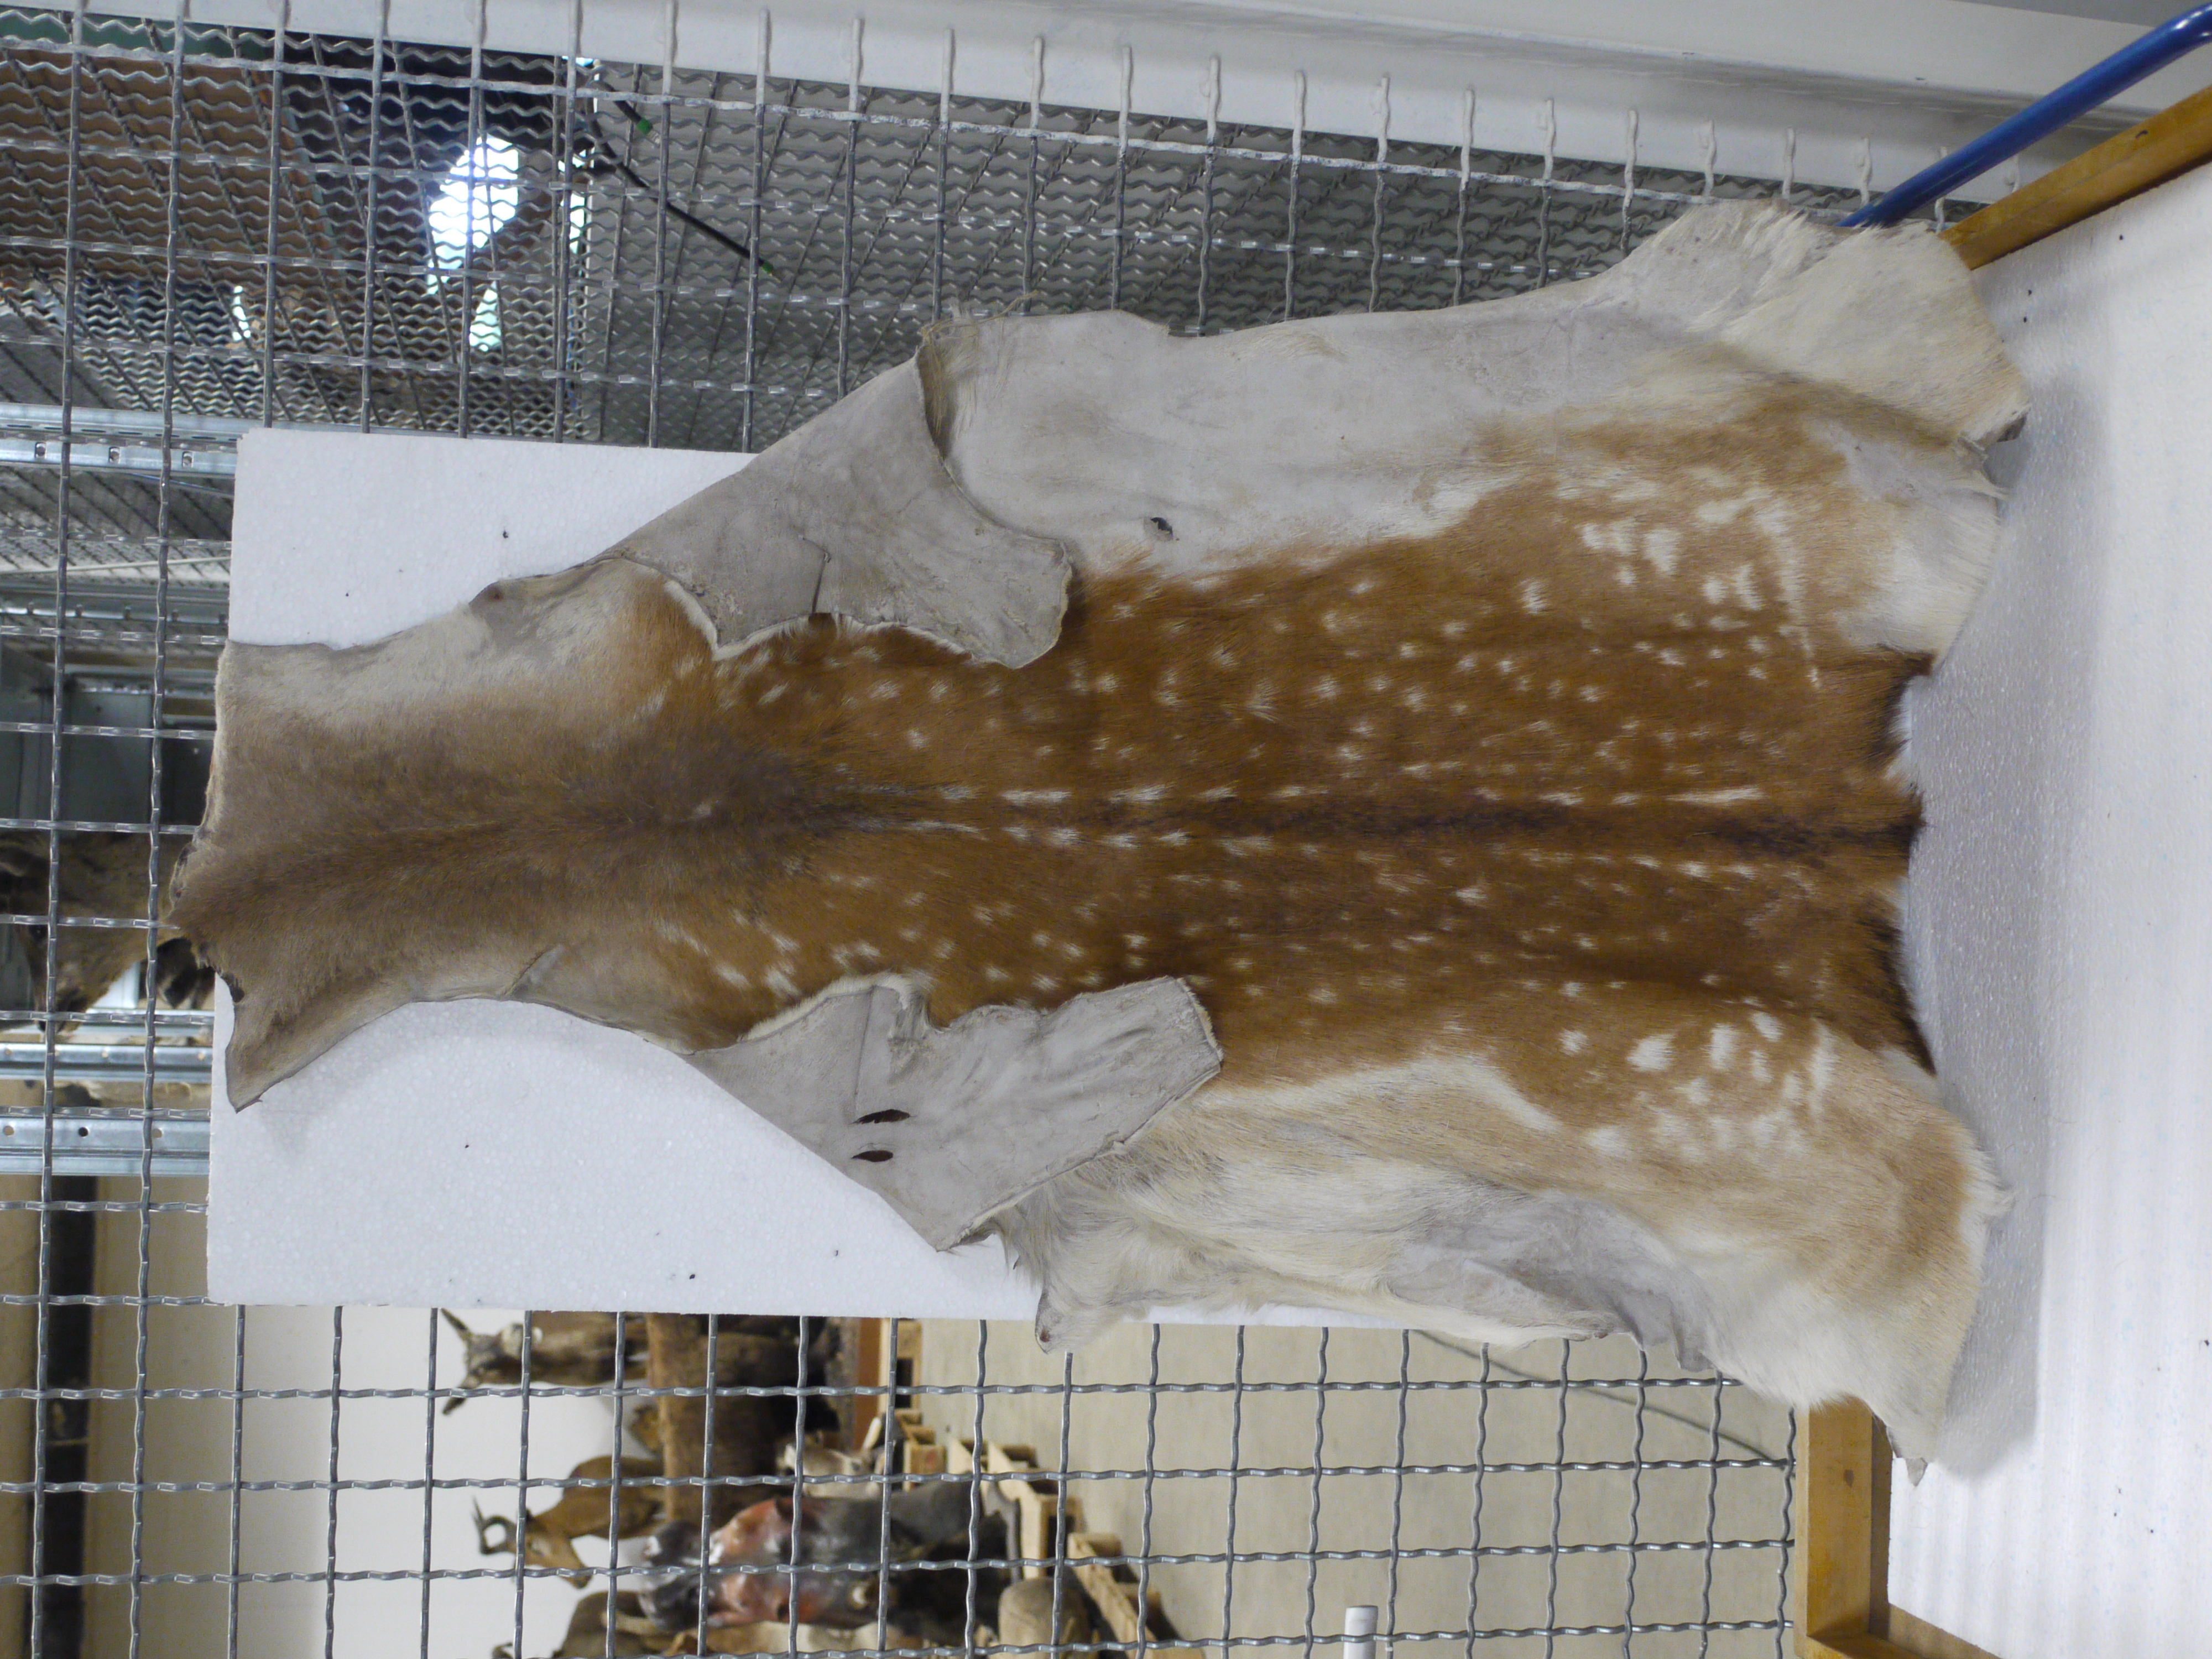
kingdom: Animalia
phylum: Chordata
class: Mammalia
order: Artiodactyla
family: Cervidae
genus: Dama
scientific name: Dama dama
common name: Fallow deer
